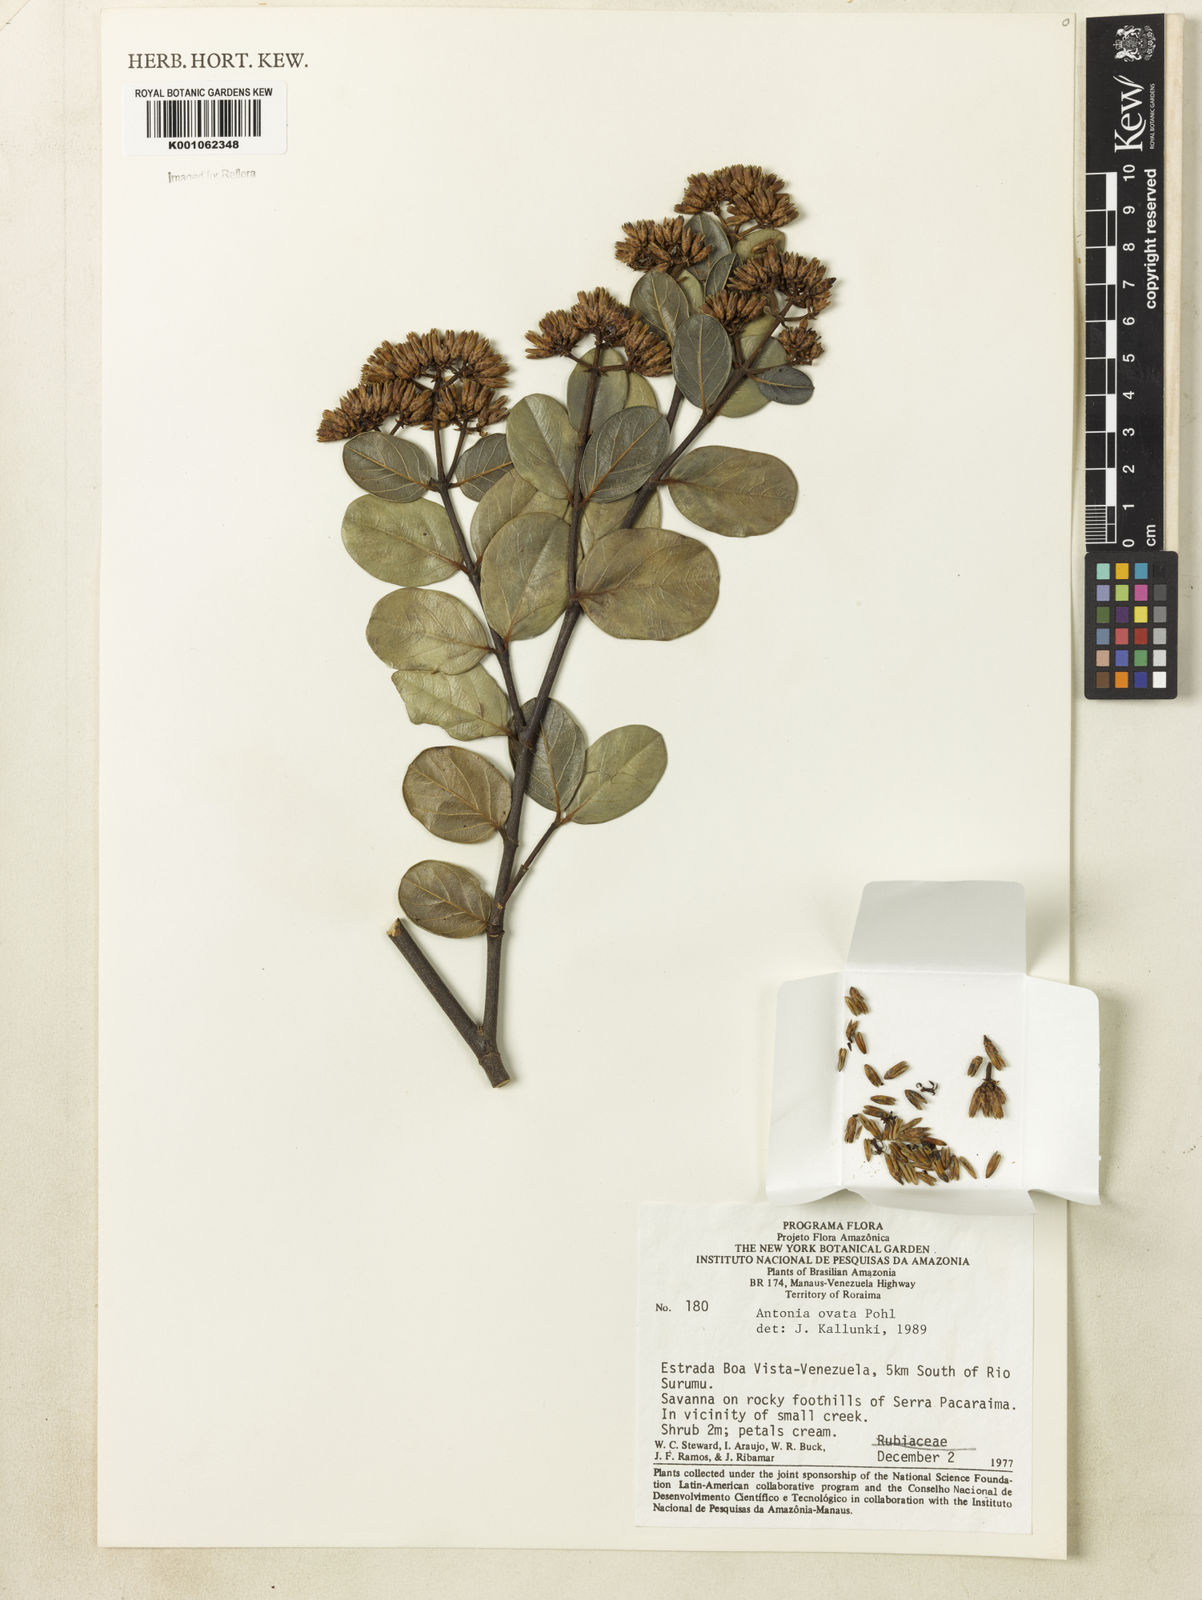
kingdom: Plantae
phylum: Tracheophyta
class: Magnoliopsida
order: Gentianales
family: Loganiaceae
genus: Antonia
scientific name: Antonia ovata
